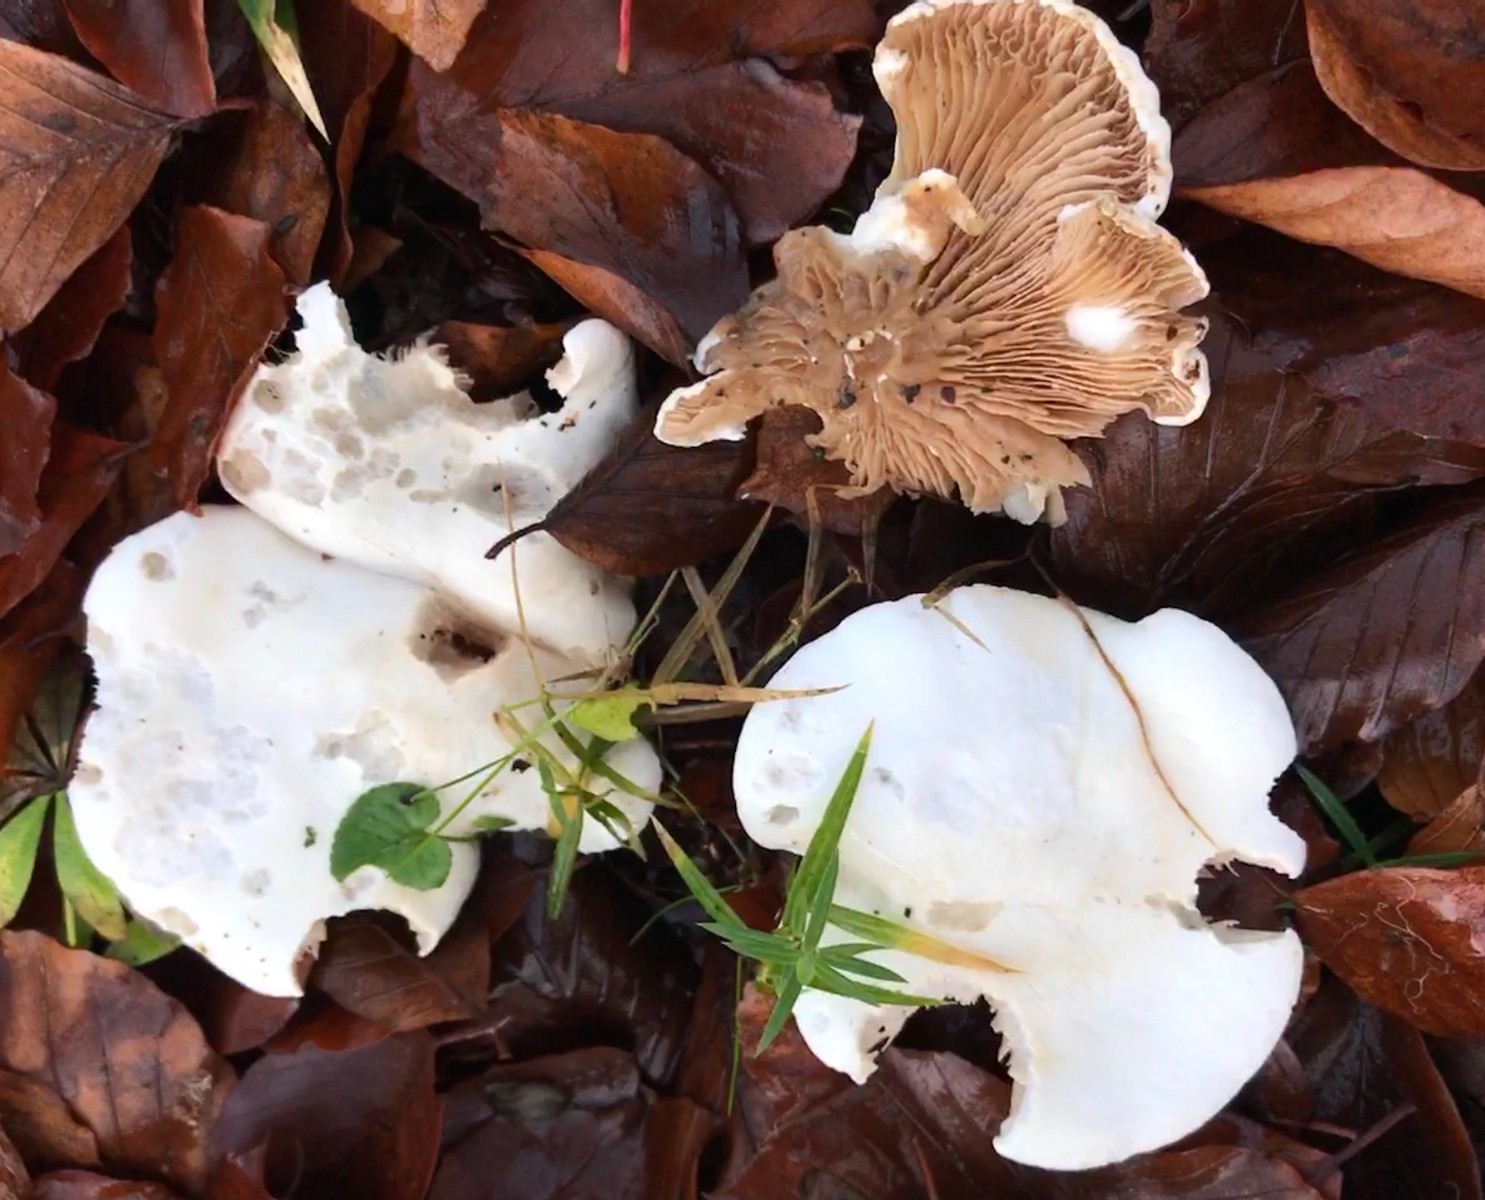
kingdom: Fungi
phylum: Basidiomycota
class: Agaricomycetes
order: Agaricales
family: Entolomataceae
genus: Clitopilus
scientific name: Clitopilus prunulus
